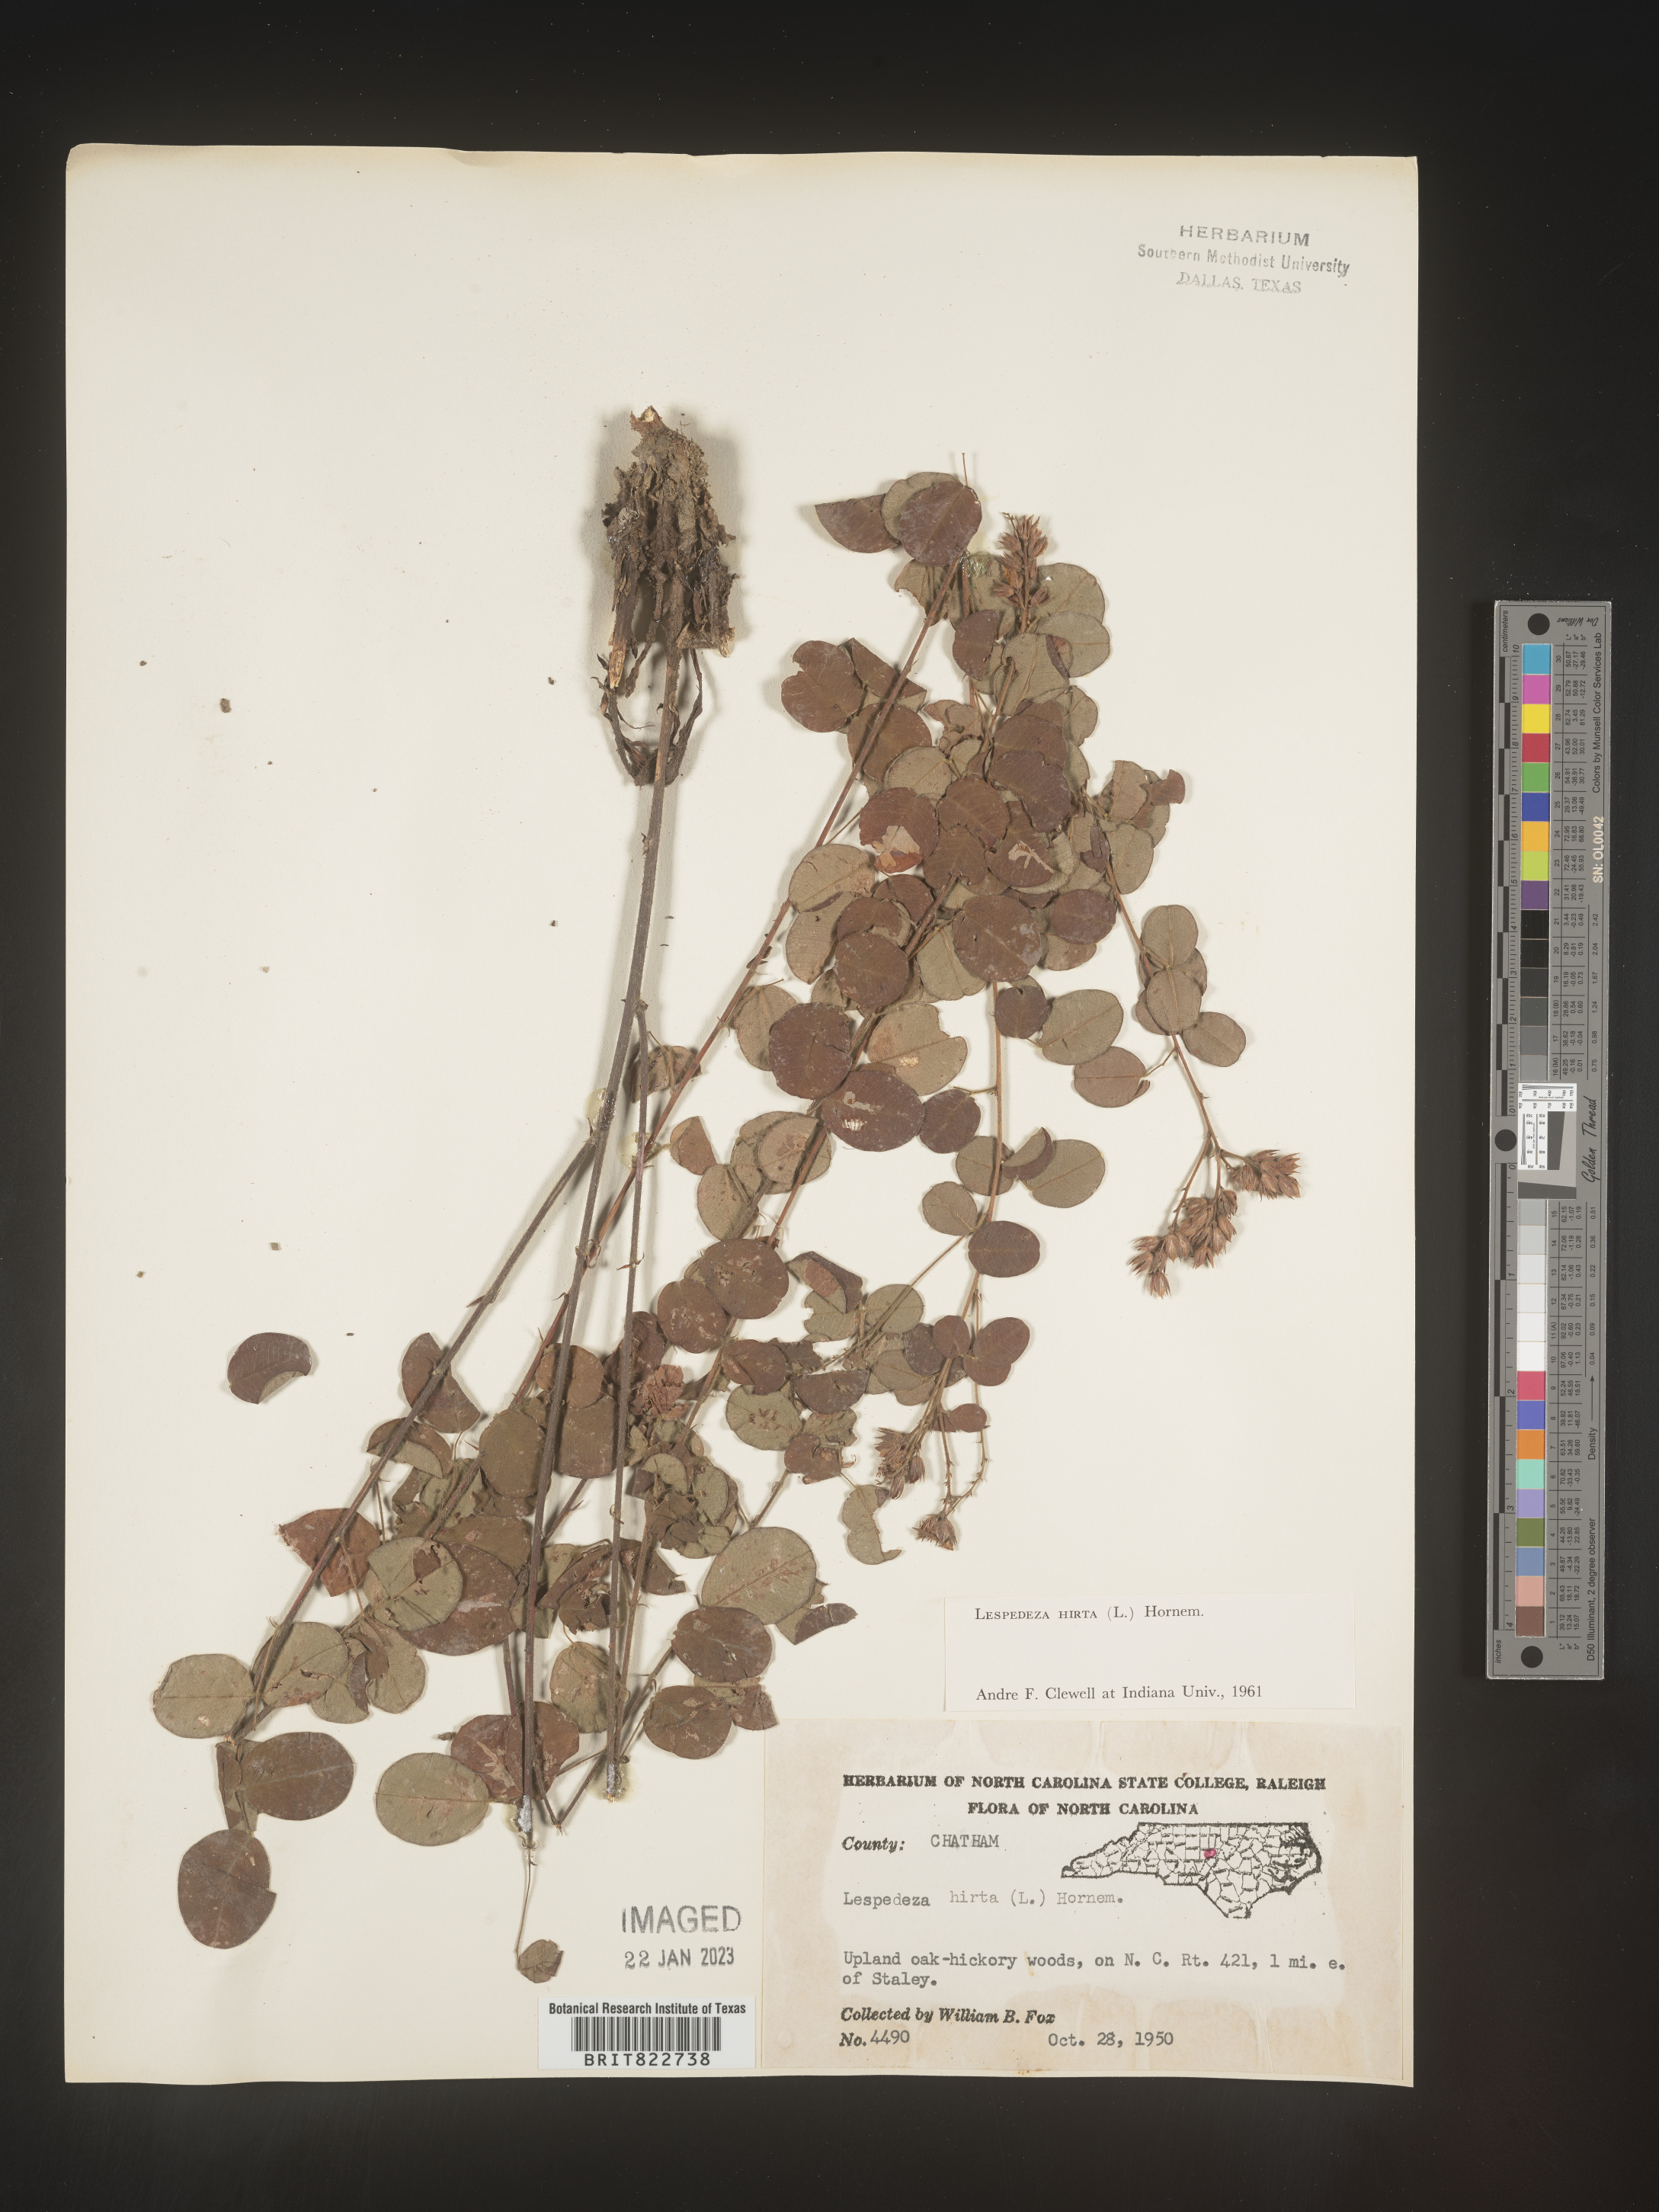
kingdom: Plantae
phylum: Tracheophyta
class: Magnoliopsida
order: Fabales
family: Fabaceae
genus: Lespedeza
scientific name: Lespedeza hirta
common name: Hairy lespedeza
